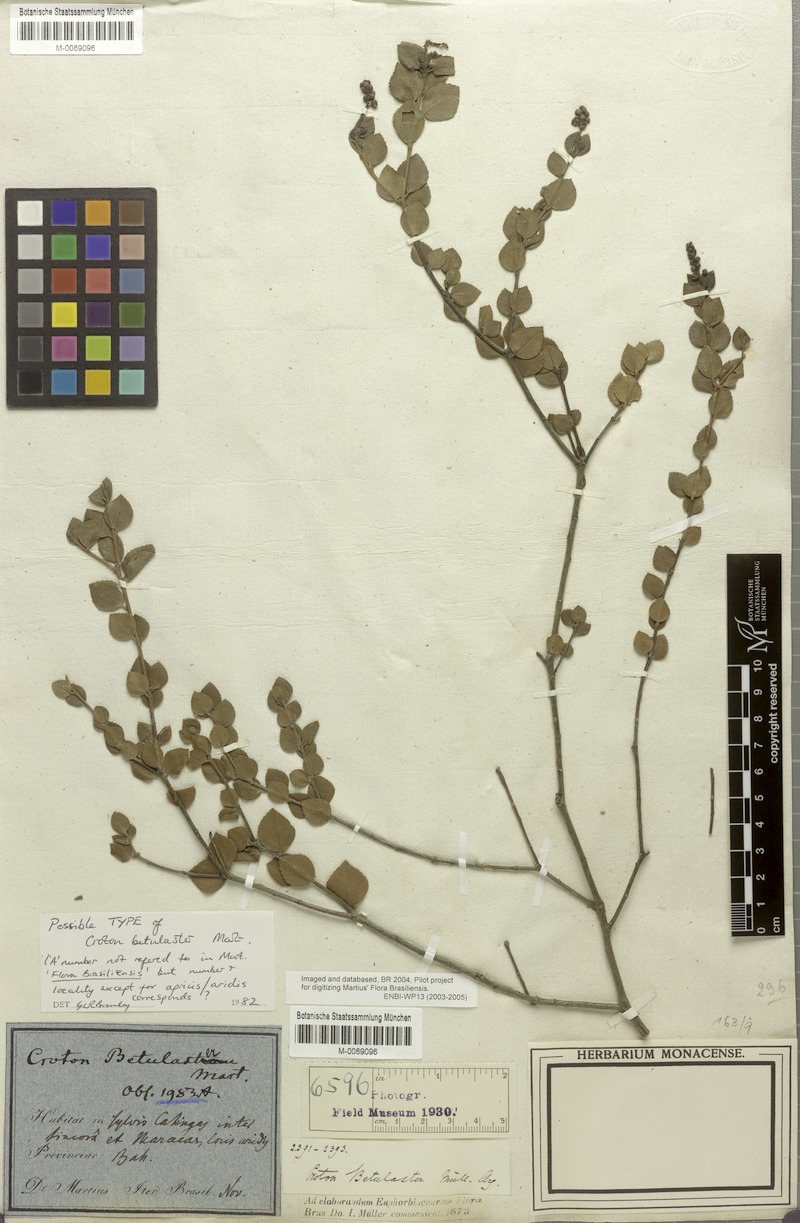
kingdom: Plantae
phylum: Tracheophyta
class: Magnoliopsida
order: Malpighiales
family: Euphorbiaceae
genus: Croton
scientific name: Croton betulaster
